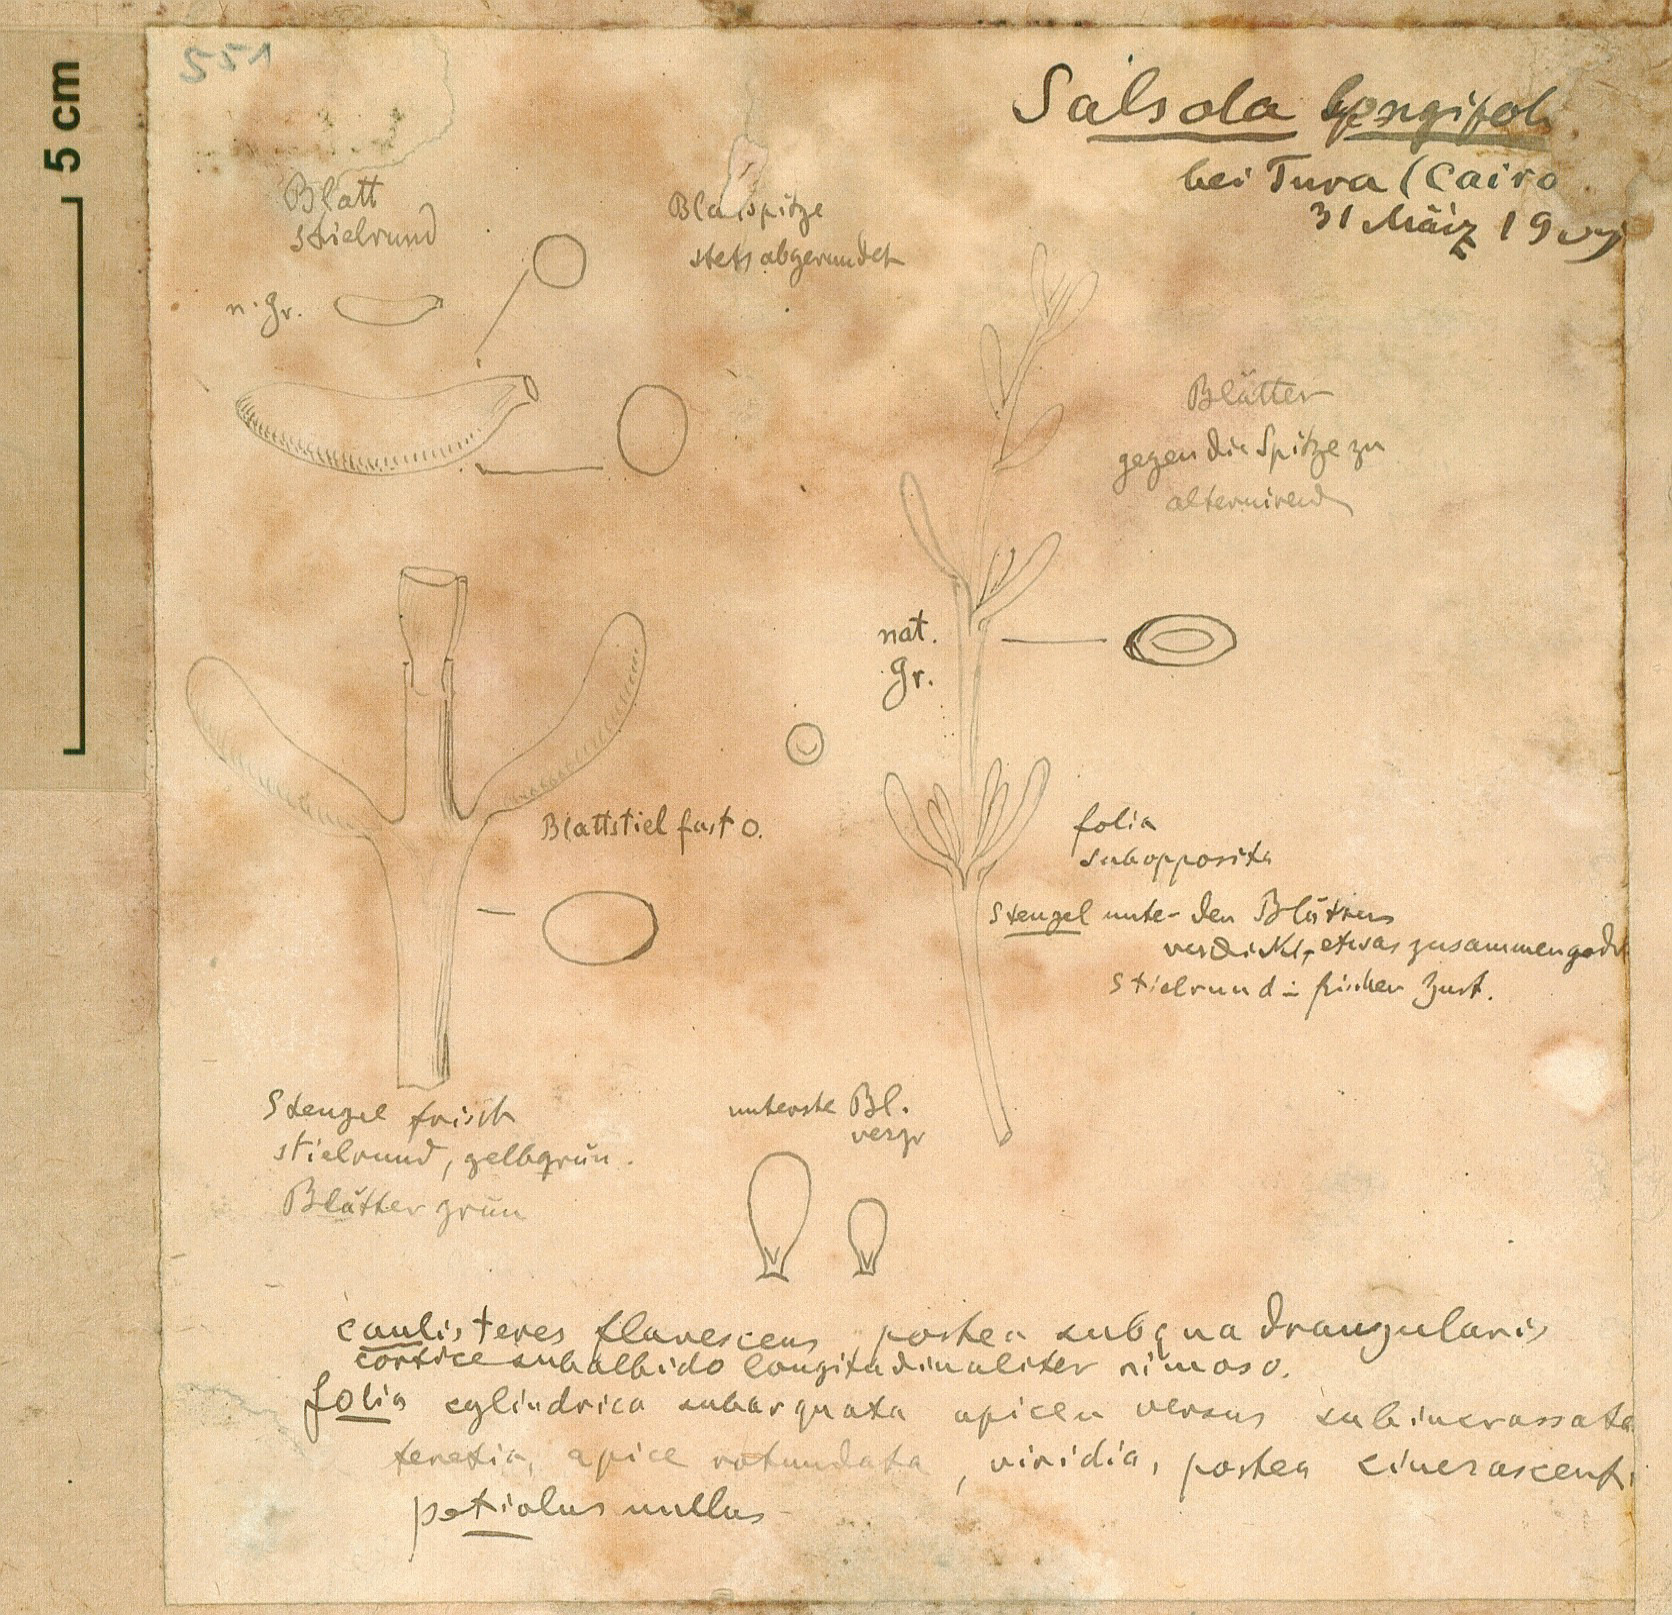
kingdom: Plantae
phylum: Tracheophyta
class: Magnoliopsida
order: Caryophyllales
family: Amaranthaceae
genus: Soda
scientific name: Soda
